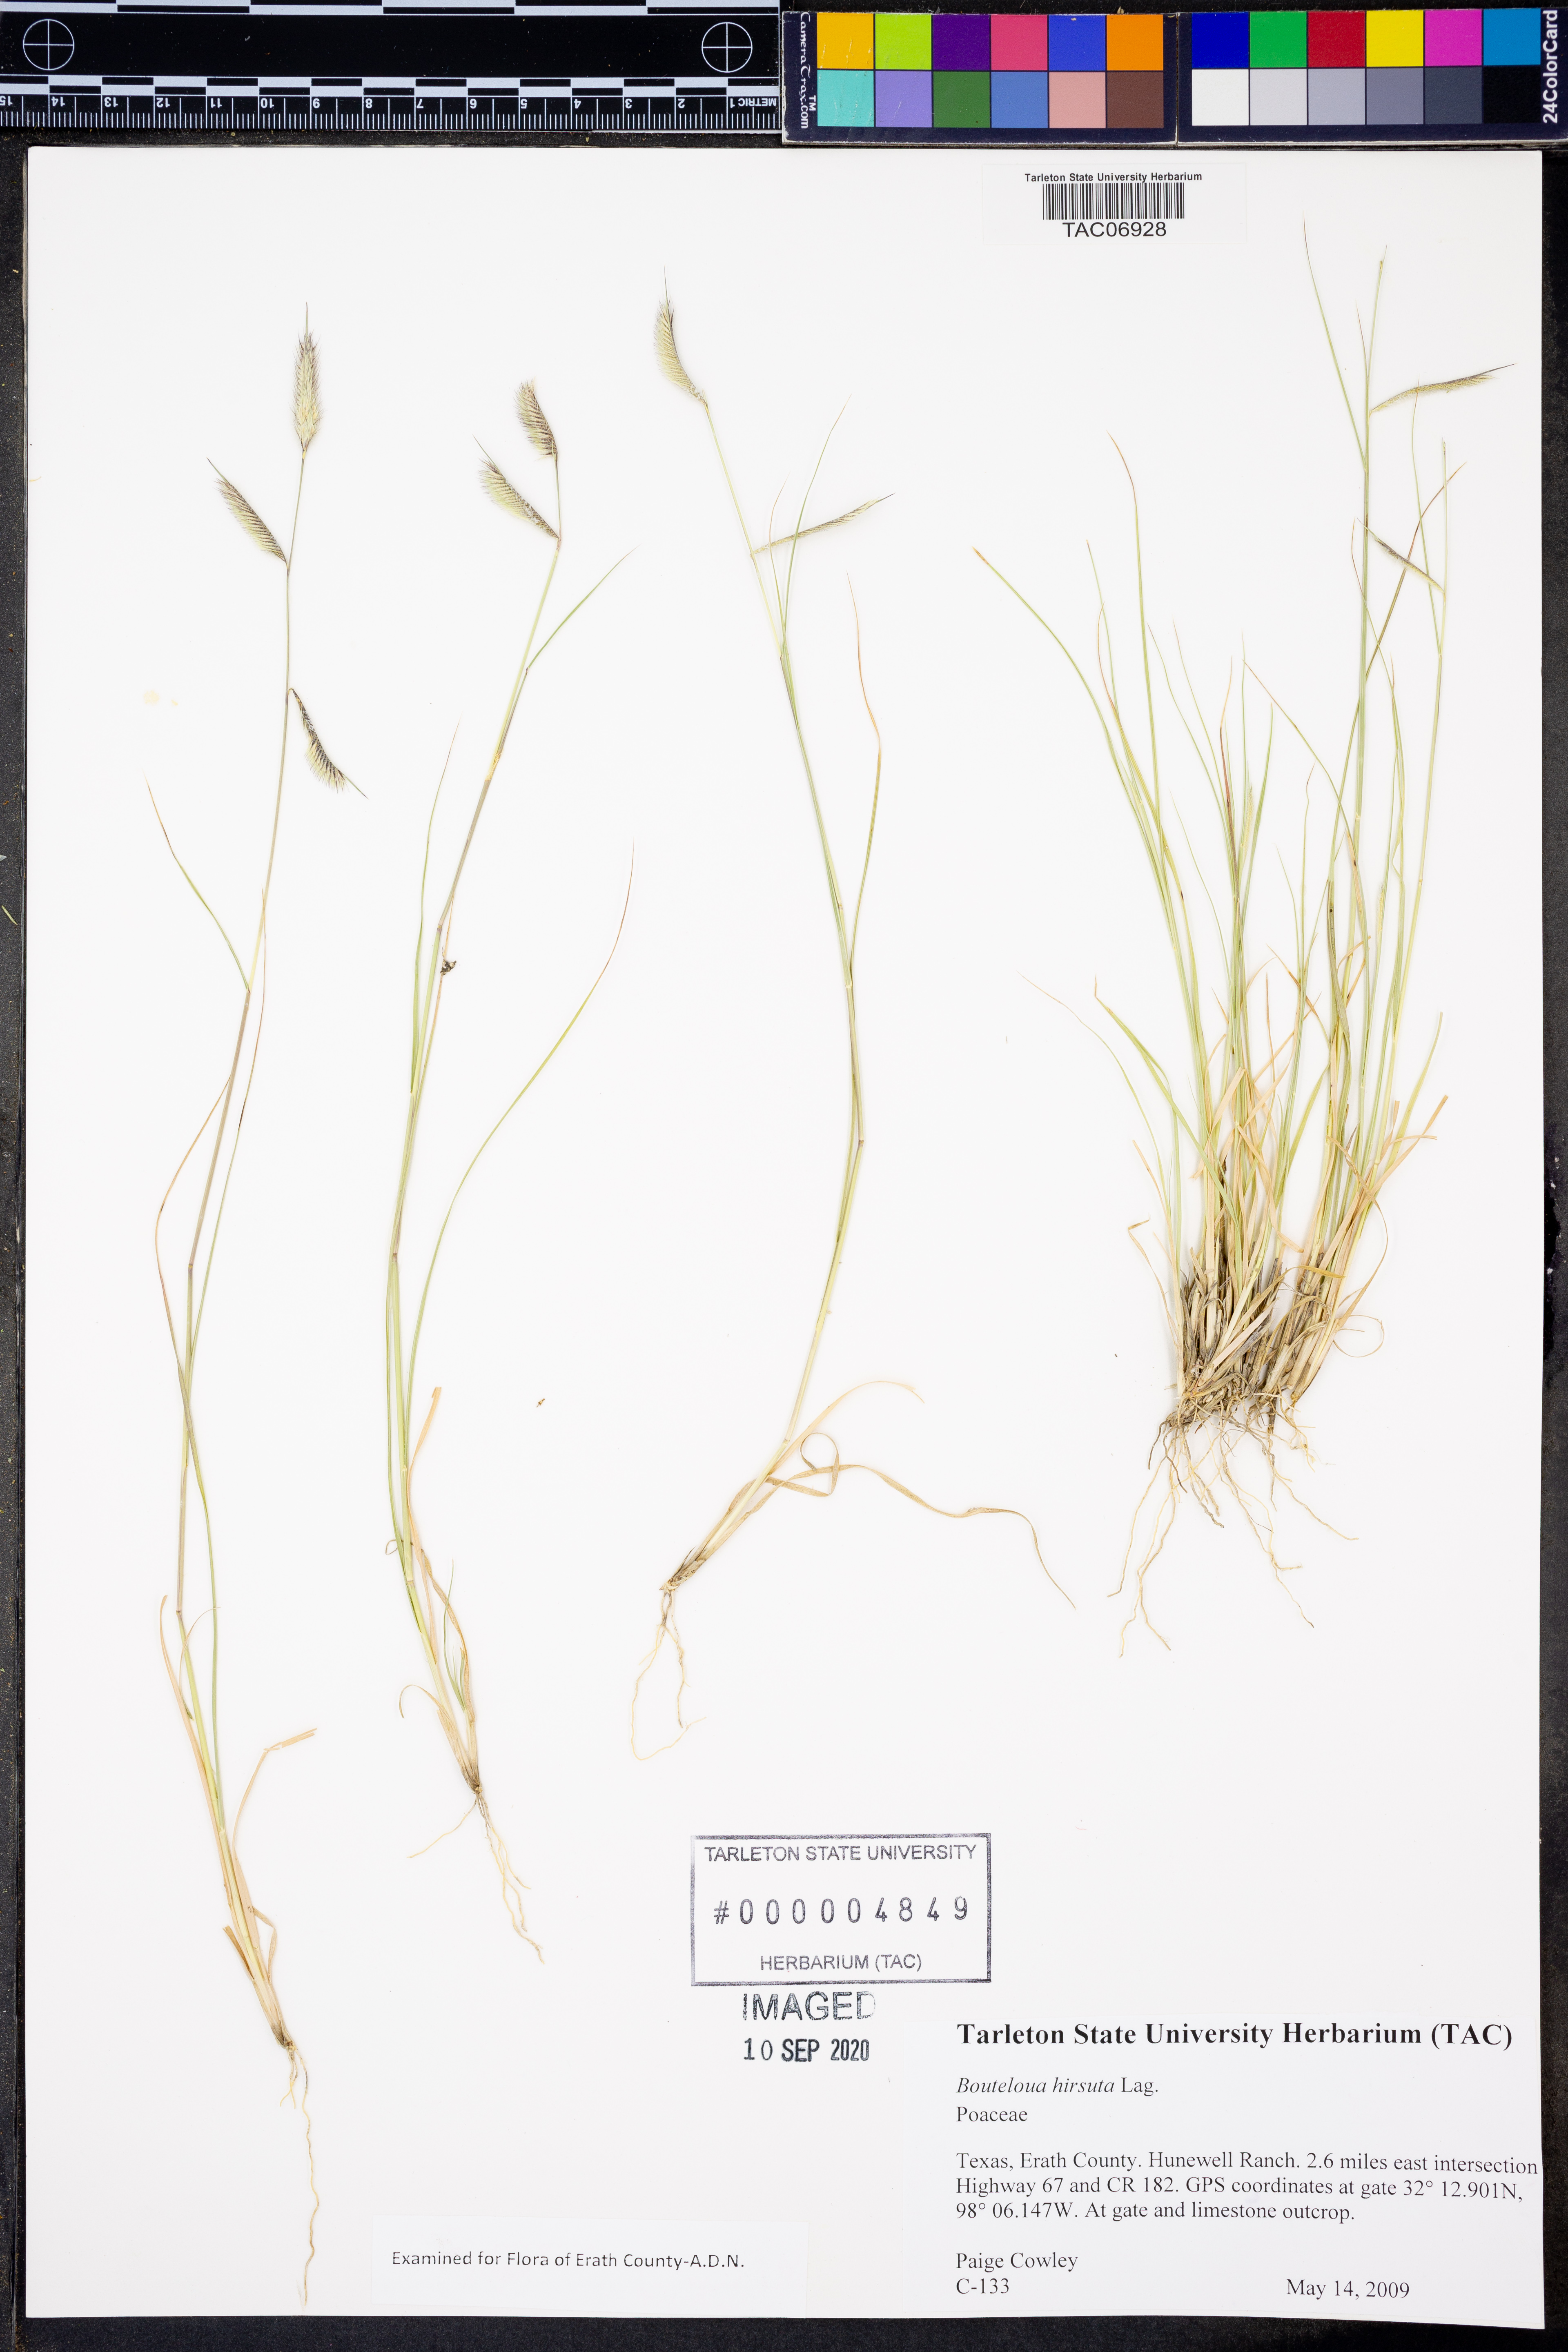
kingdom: Plantae
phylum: Tracheophyta
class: Liliopsida
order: Poales
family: Poaceae
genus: Bouteloua
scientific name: Bouteloua hirsuta
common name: Hairy grama
